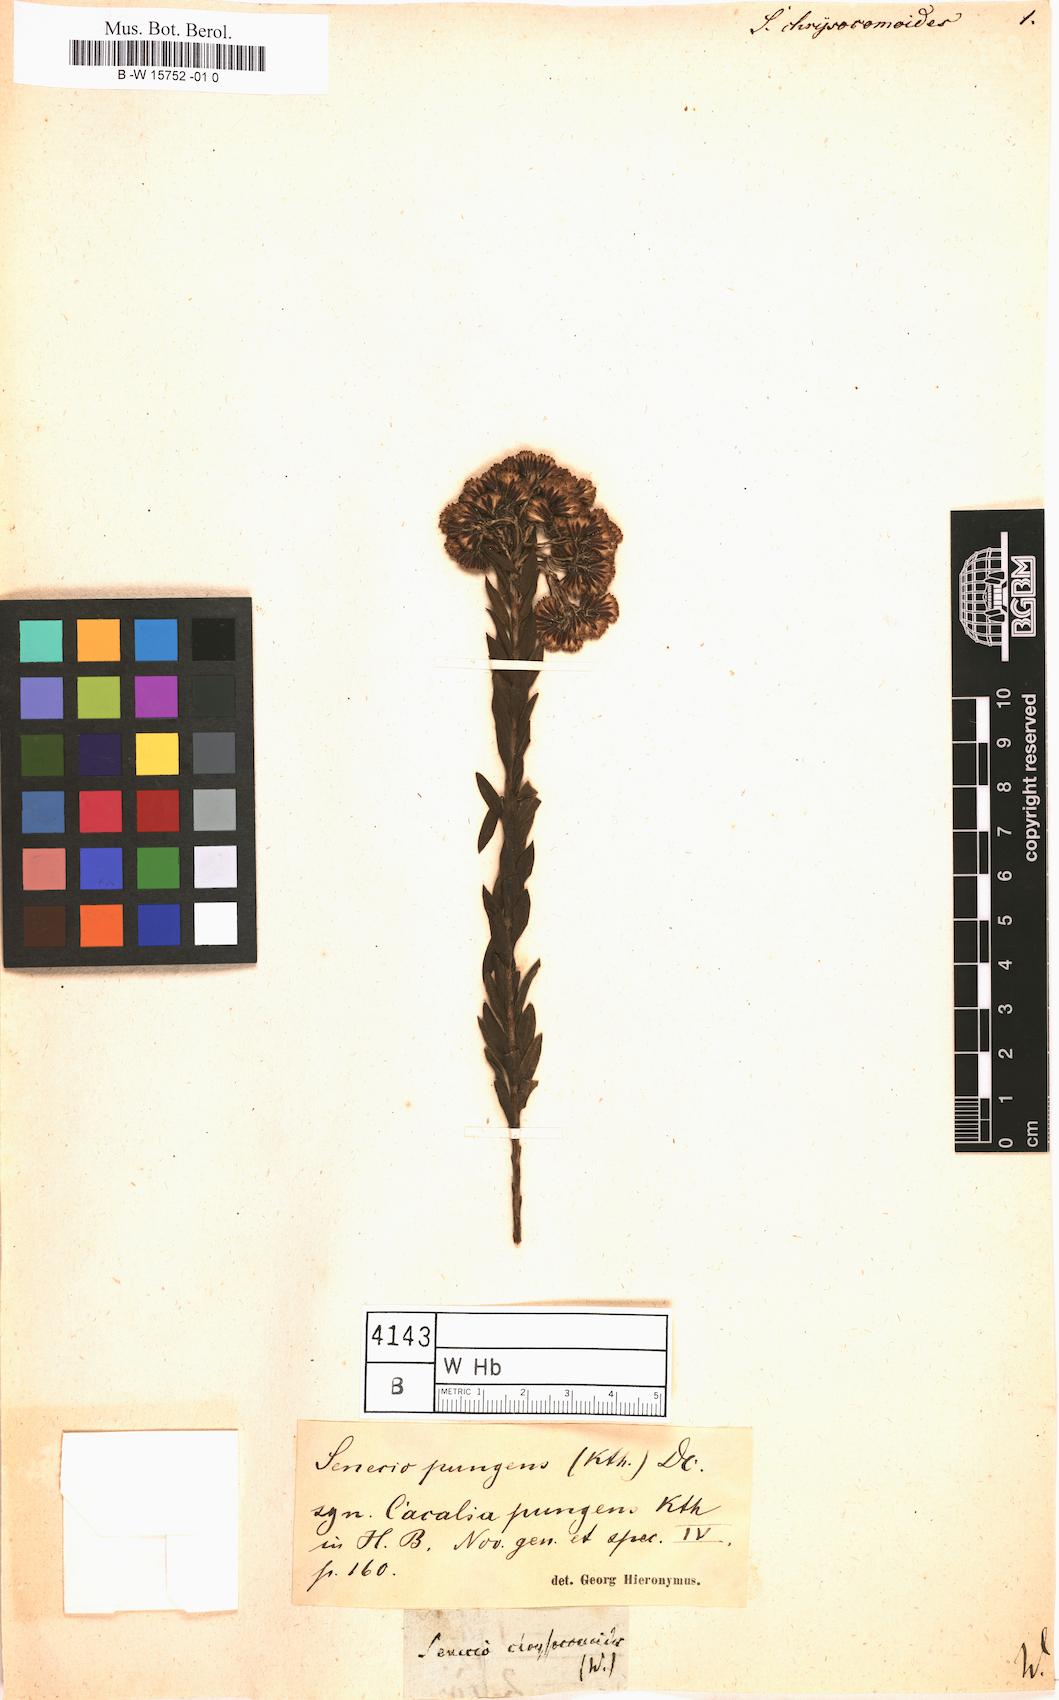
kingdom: Plantae
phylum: Tracheophyta
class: Magnoliopsida
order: Asterales
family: Asteraceae
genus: Senecio
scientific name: Senecio chrysocomoides
